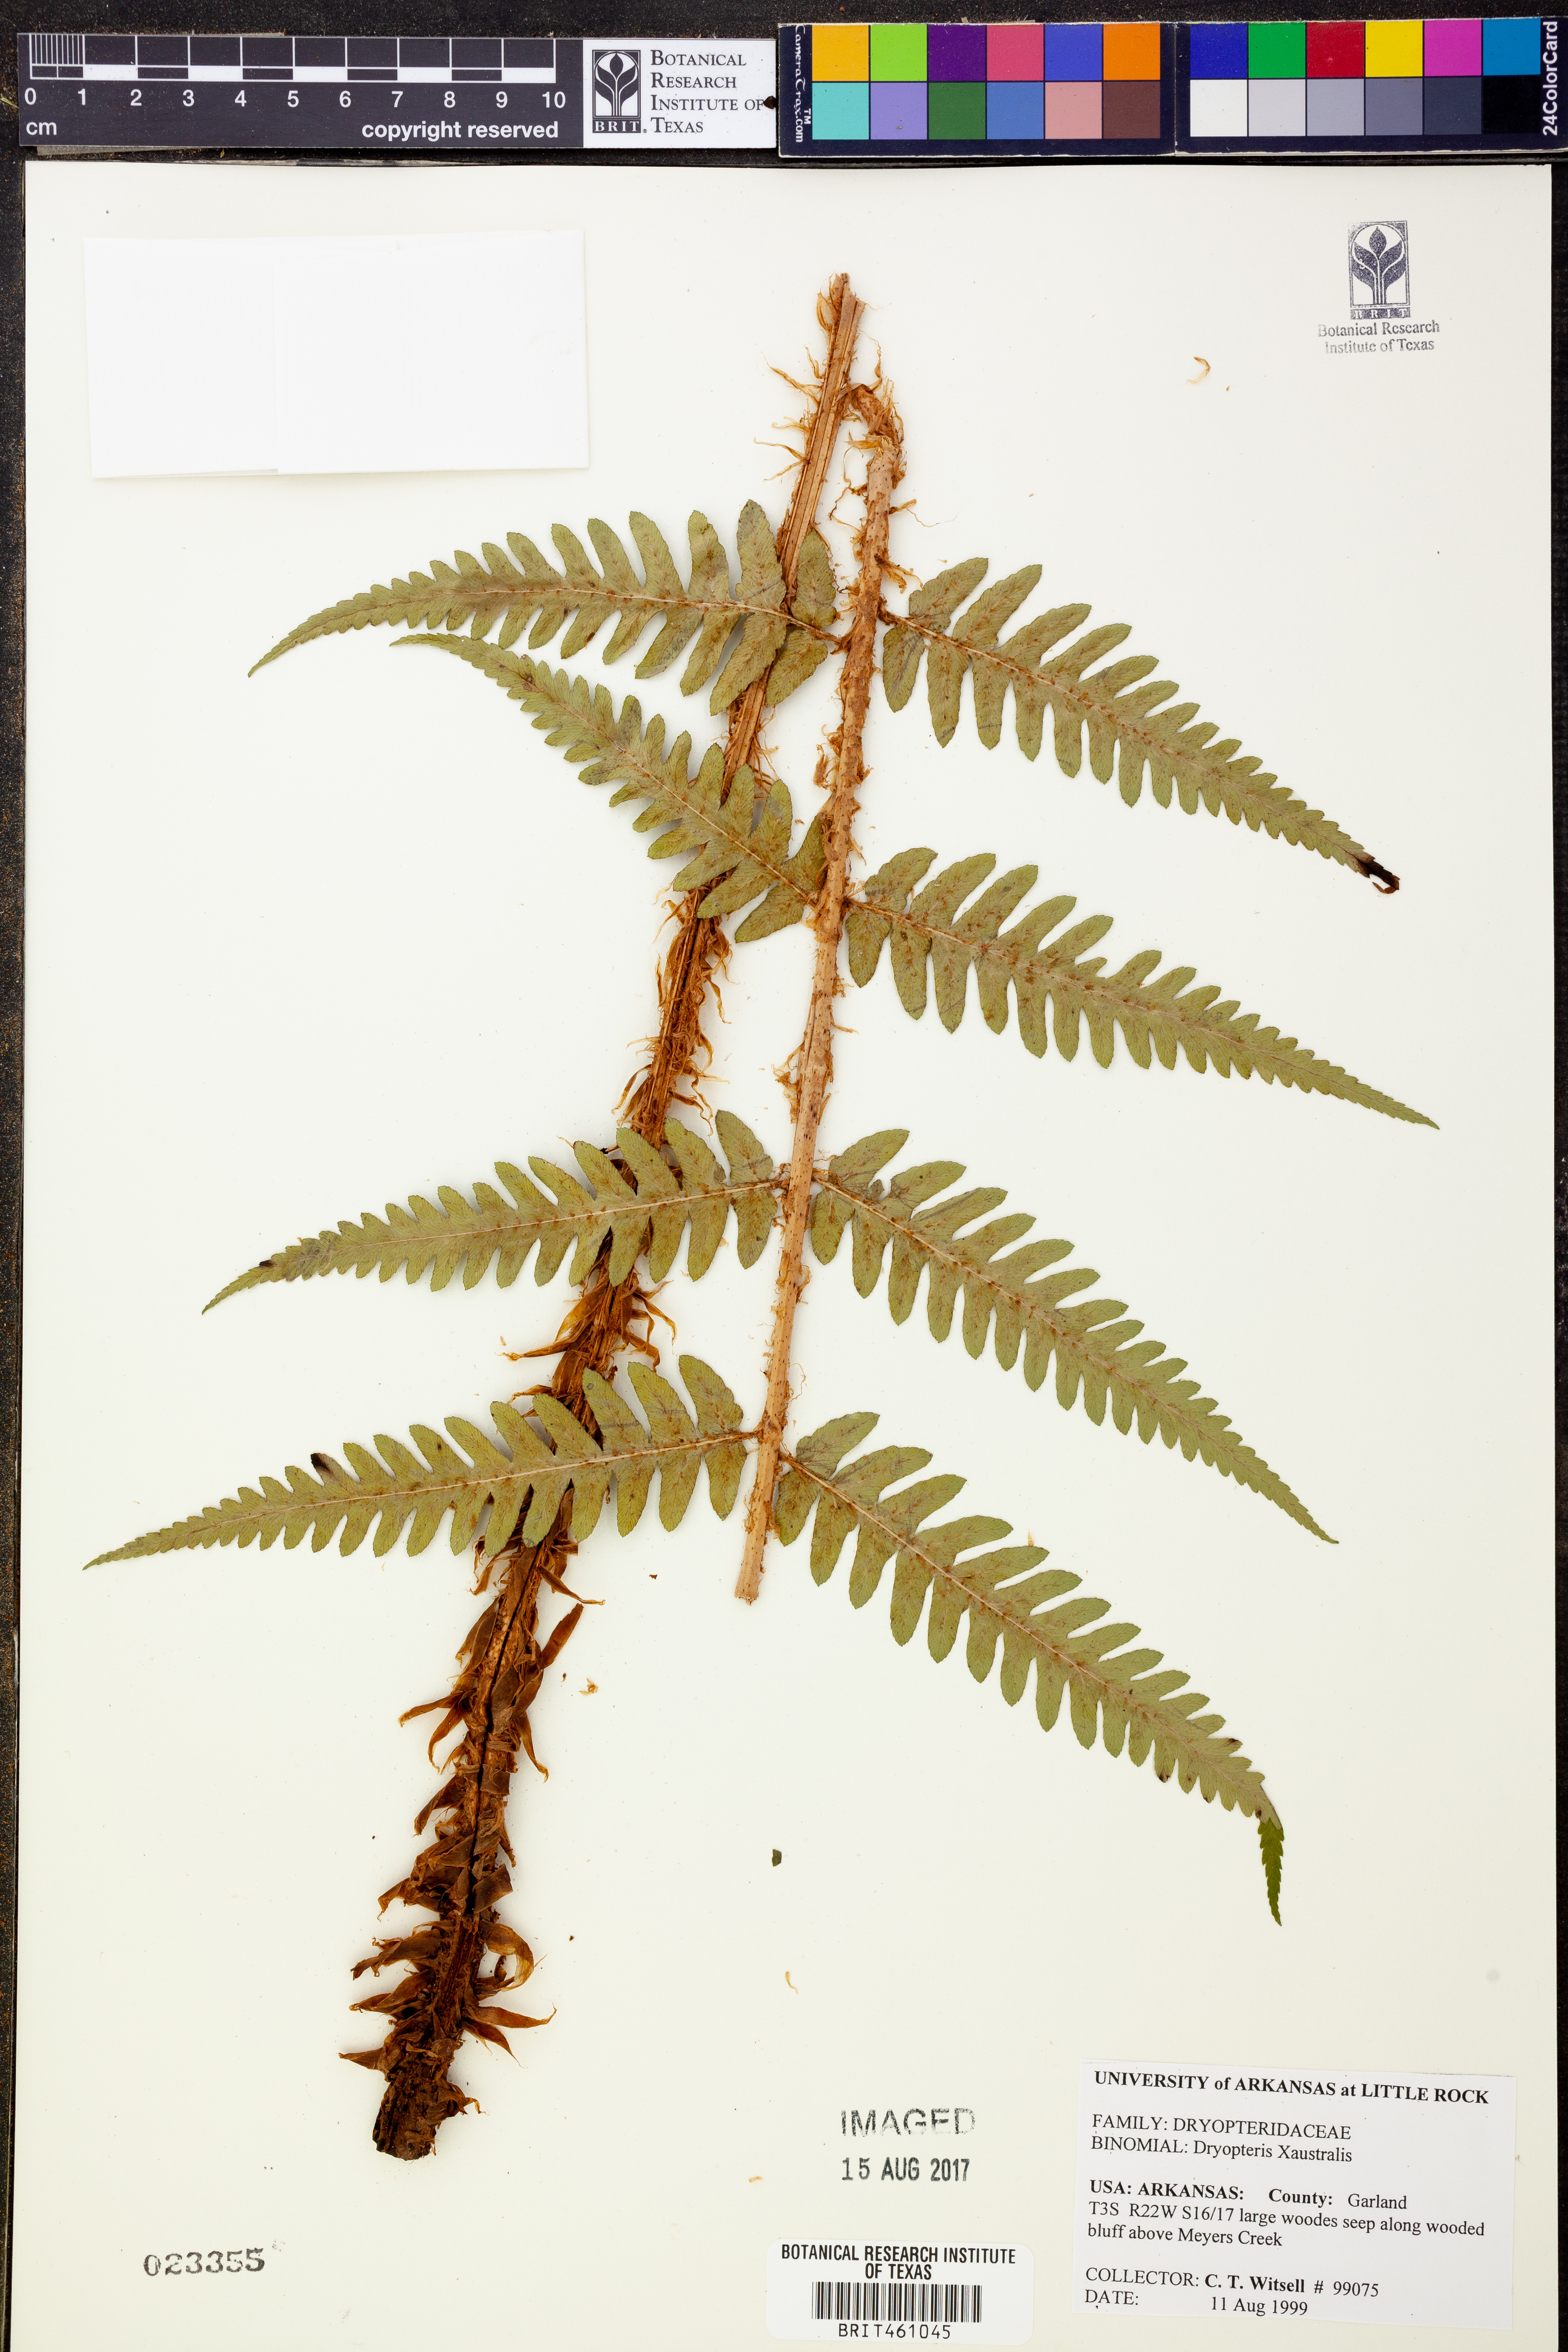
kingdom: Plantae
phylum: Tracheophyta
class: Polypodiopsida
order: Polypodiales
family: Dryopteridaceae
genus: Dryopteris
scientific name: Dryopteris australis
